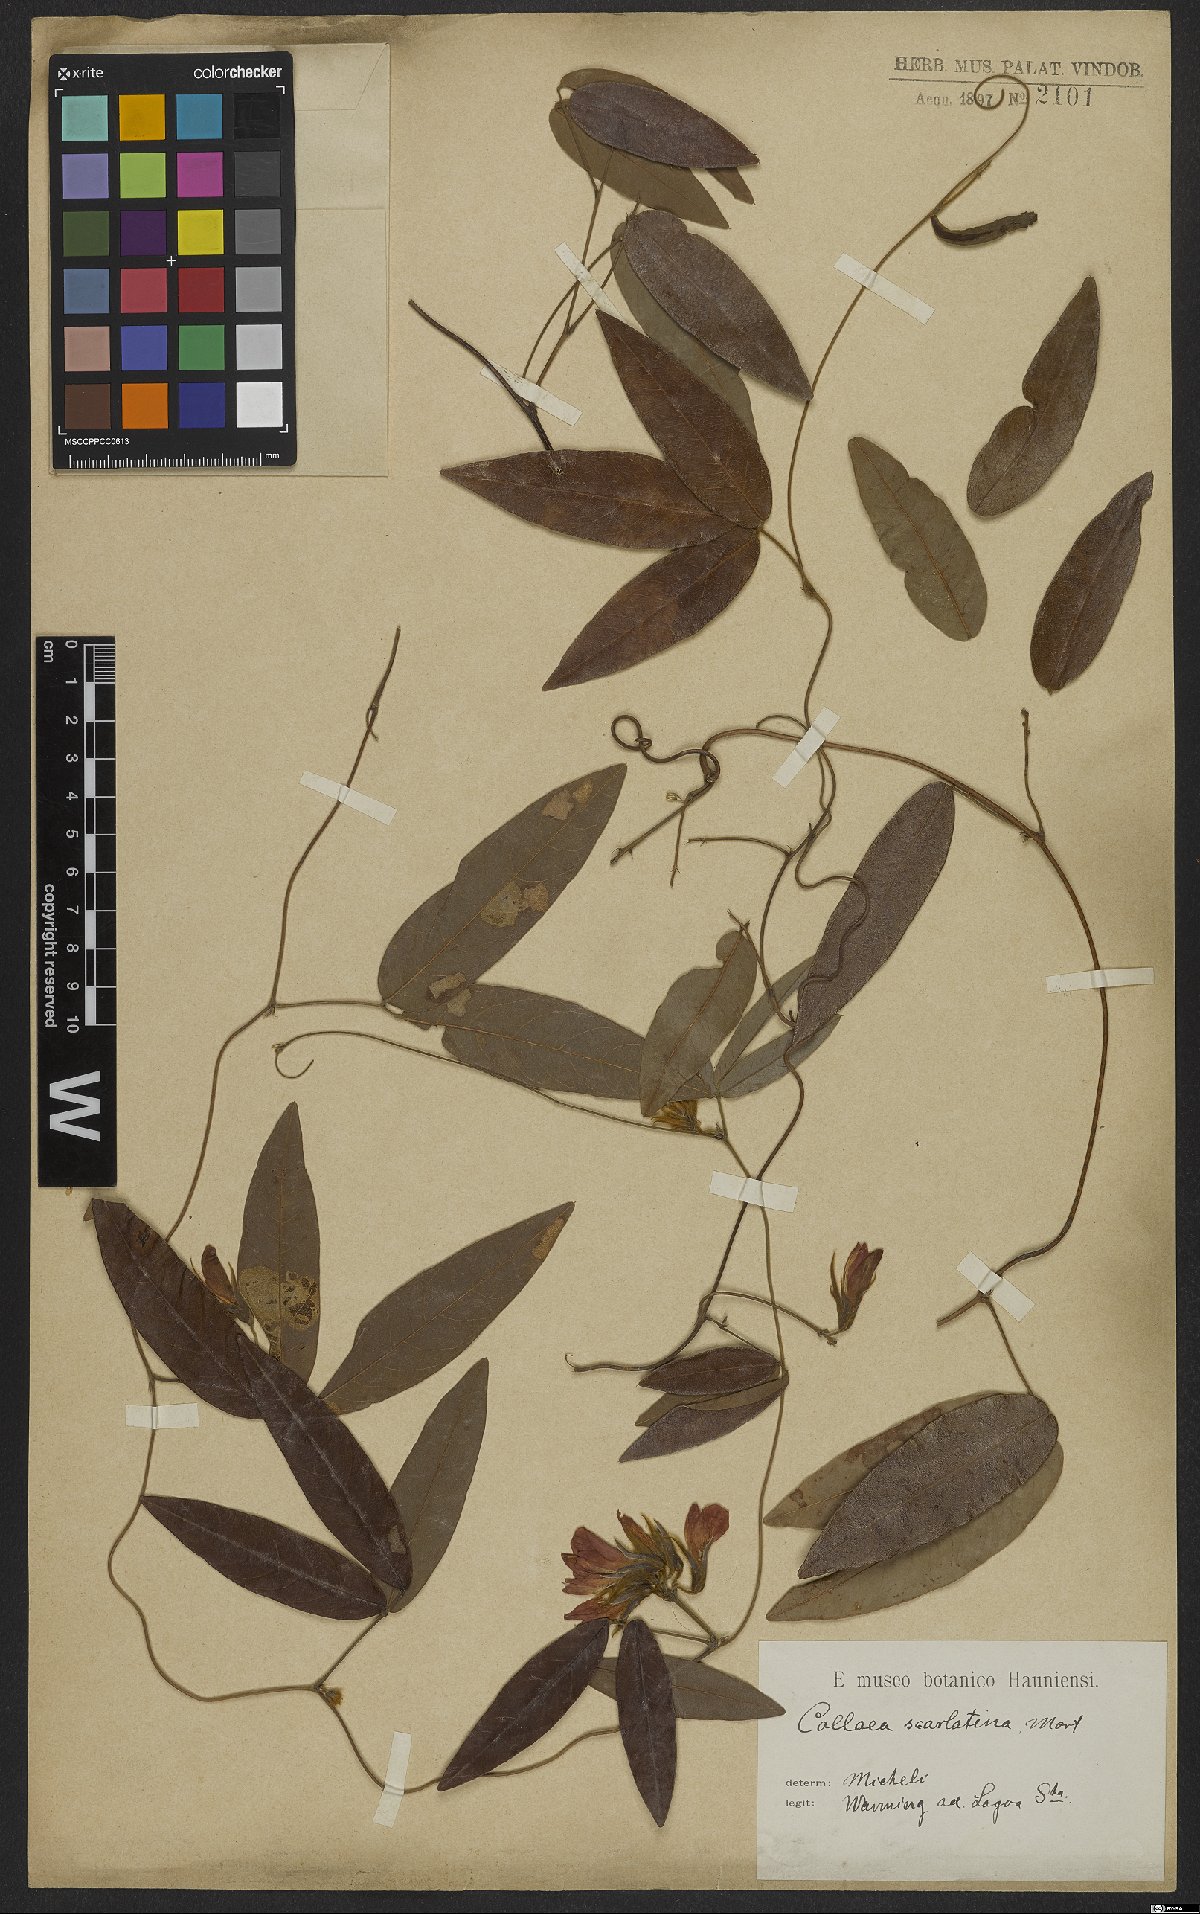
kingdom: Plantae
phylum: Tracheophyta
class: Magnoliopsida
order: Fabales
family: Fabaceae
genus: Betencourtia
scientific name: Betencourtia scarlatina
